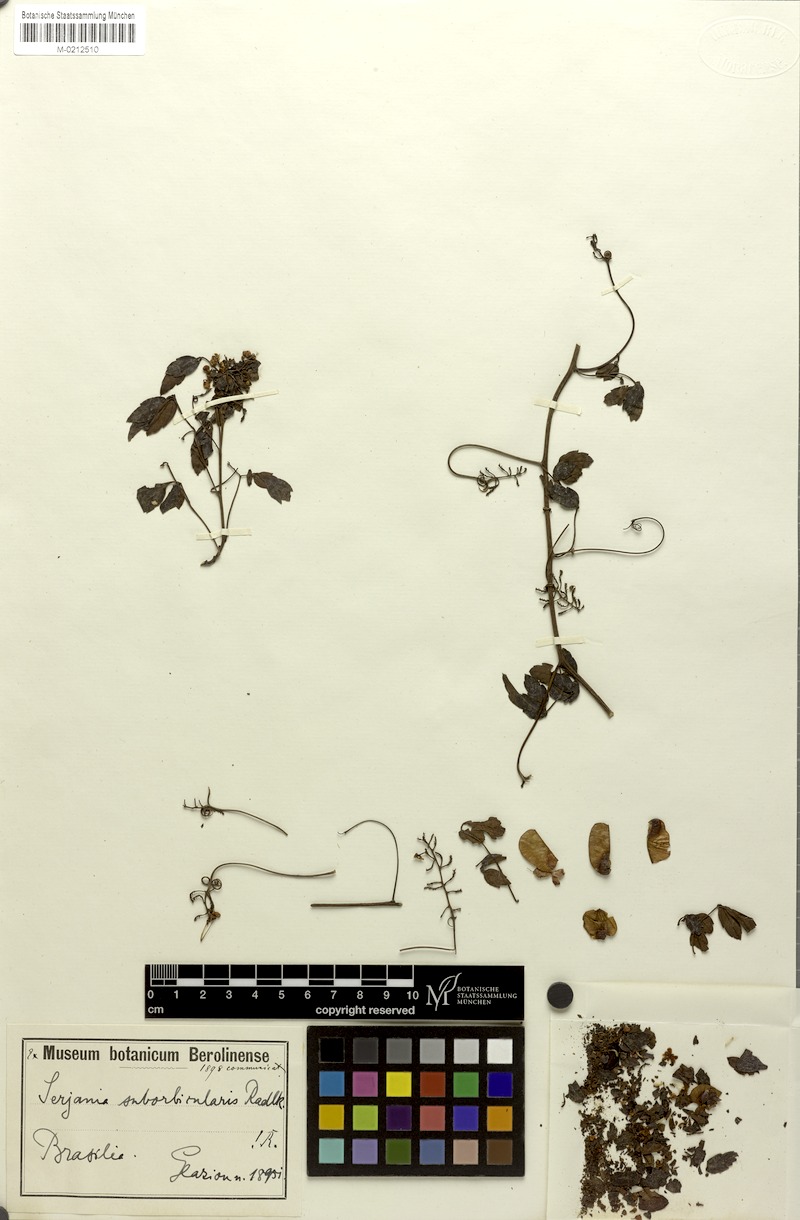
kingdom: Plantae
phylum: Tracheophyta
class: Magnoliopsida
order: Sapindales
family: Sapindaceae
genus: Serjania
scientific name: Serjania suborbicularis
